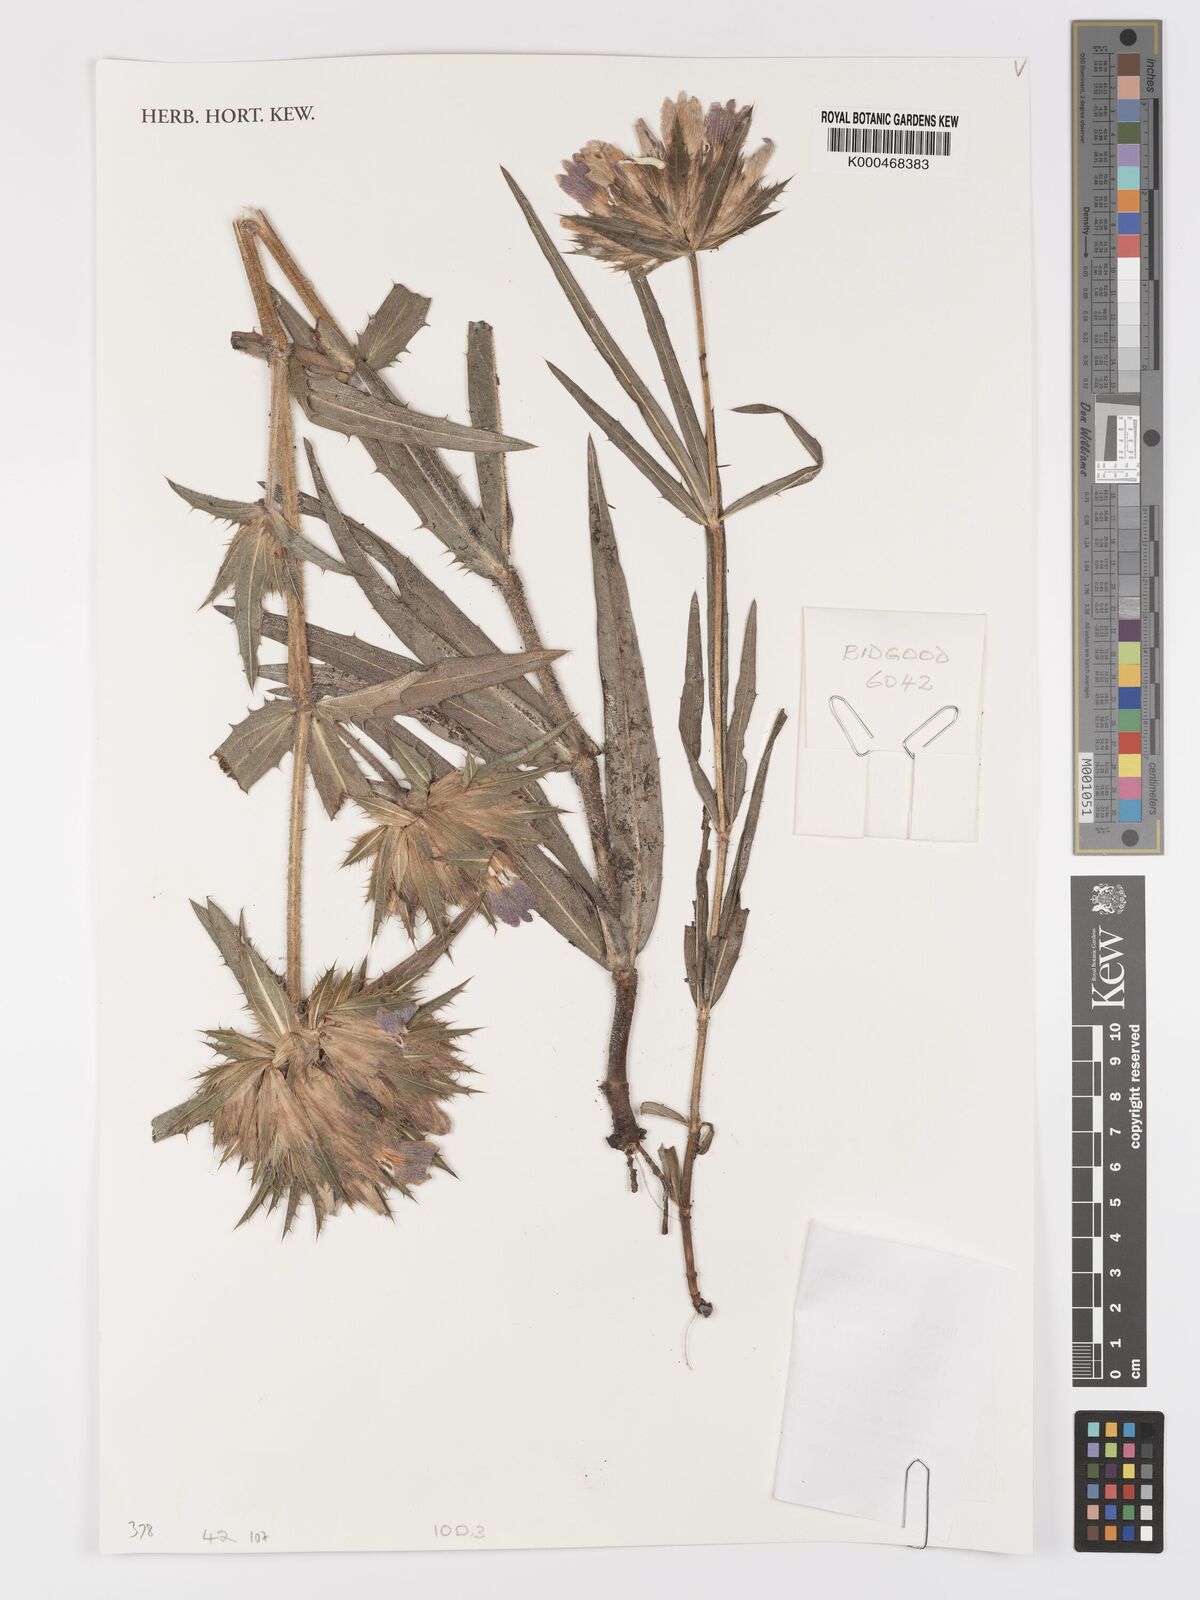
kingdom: Plantae
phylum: Tracheophyta
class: Magnoliopsida
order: Lamiales
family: Acanthaceae
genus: Blepharis
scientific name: Blepharis asteracantha
